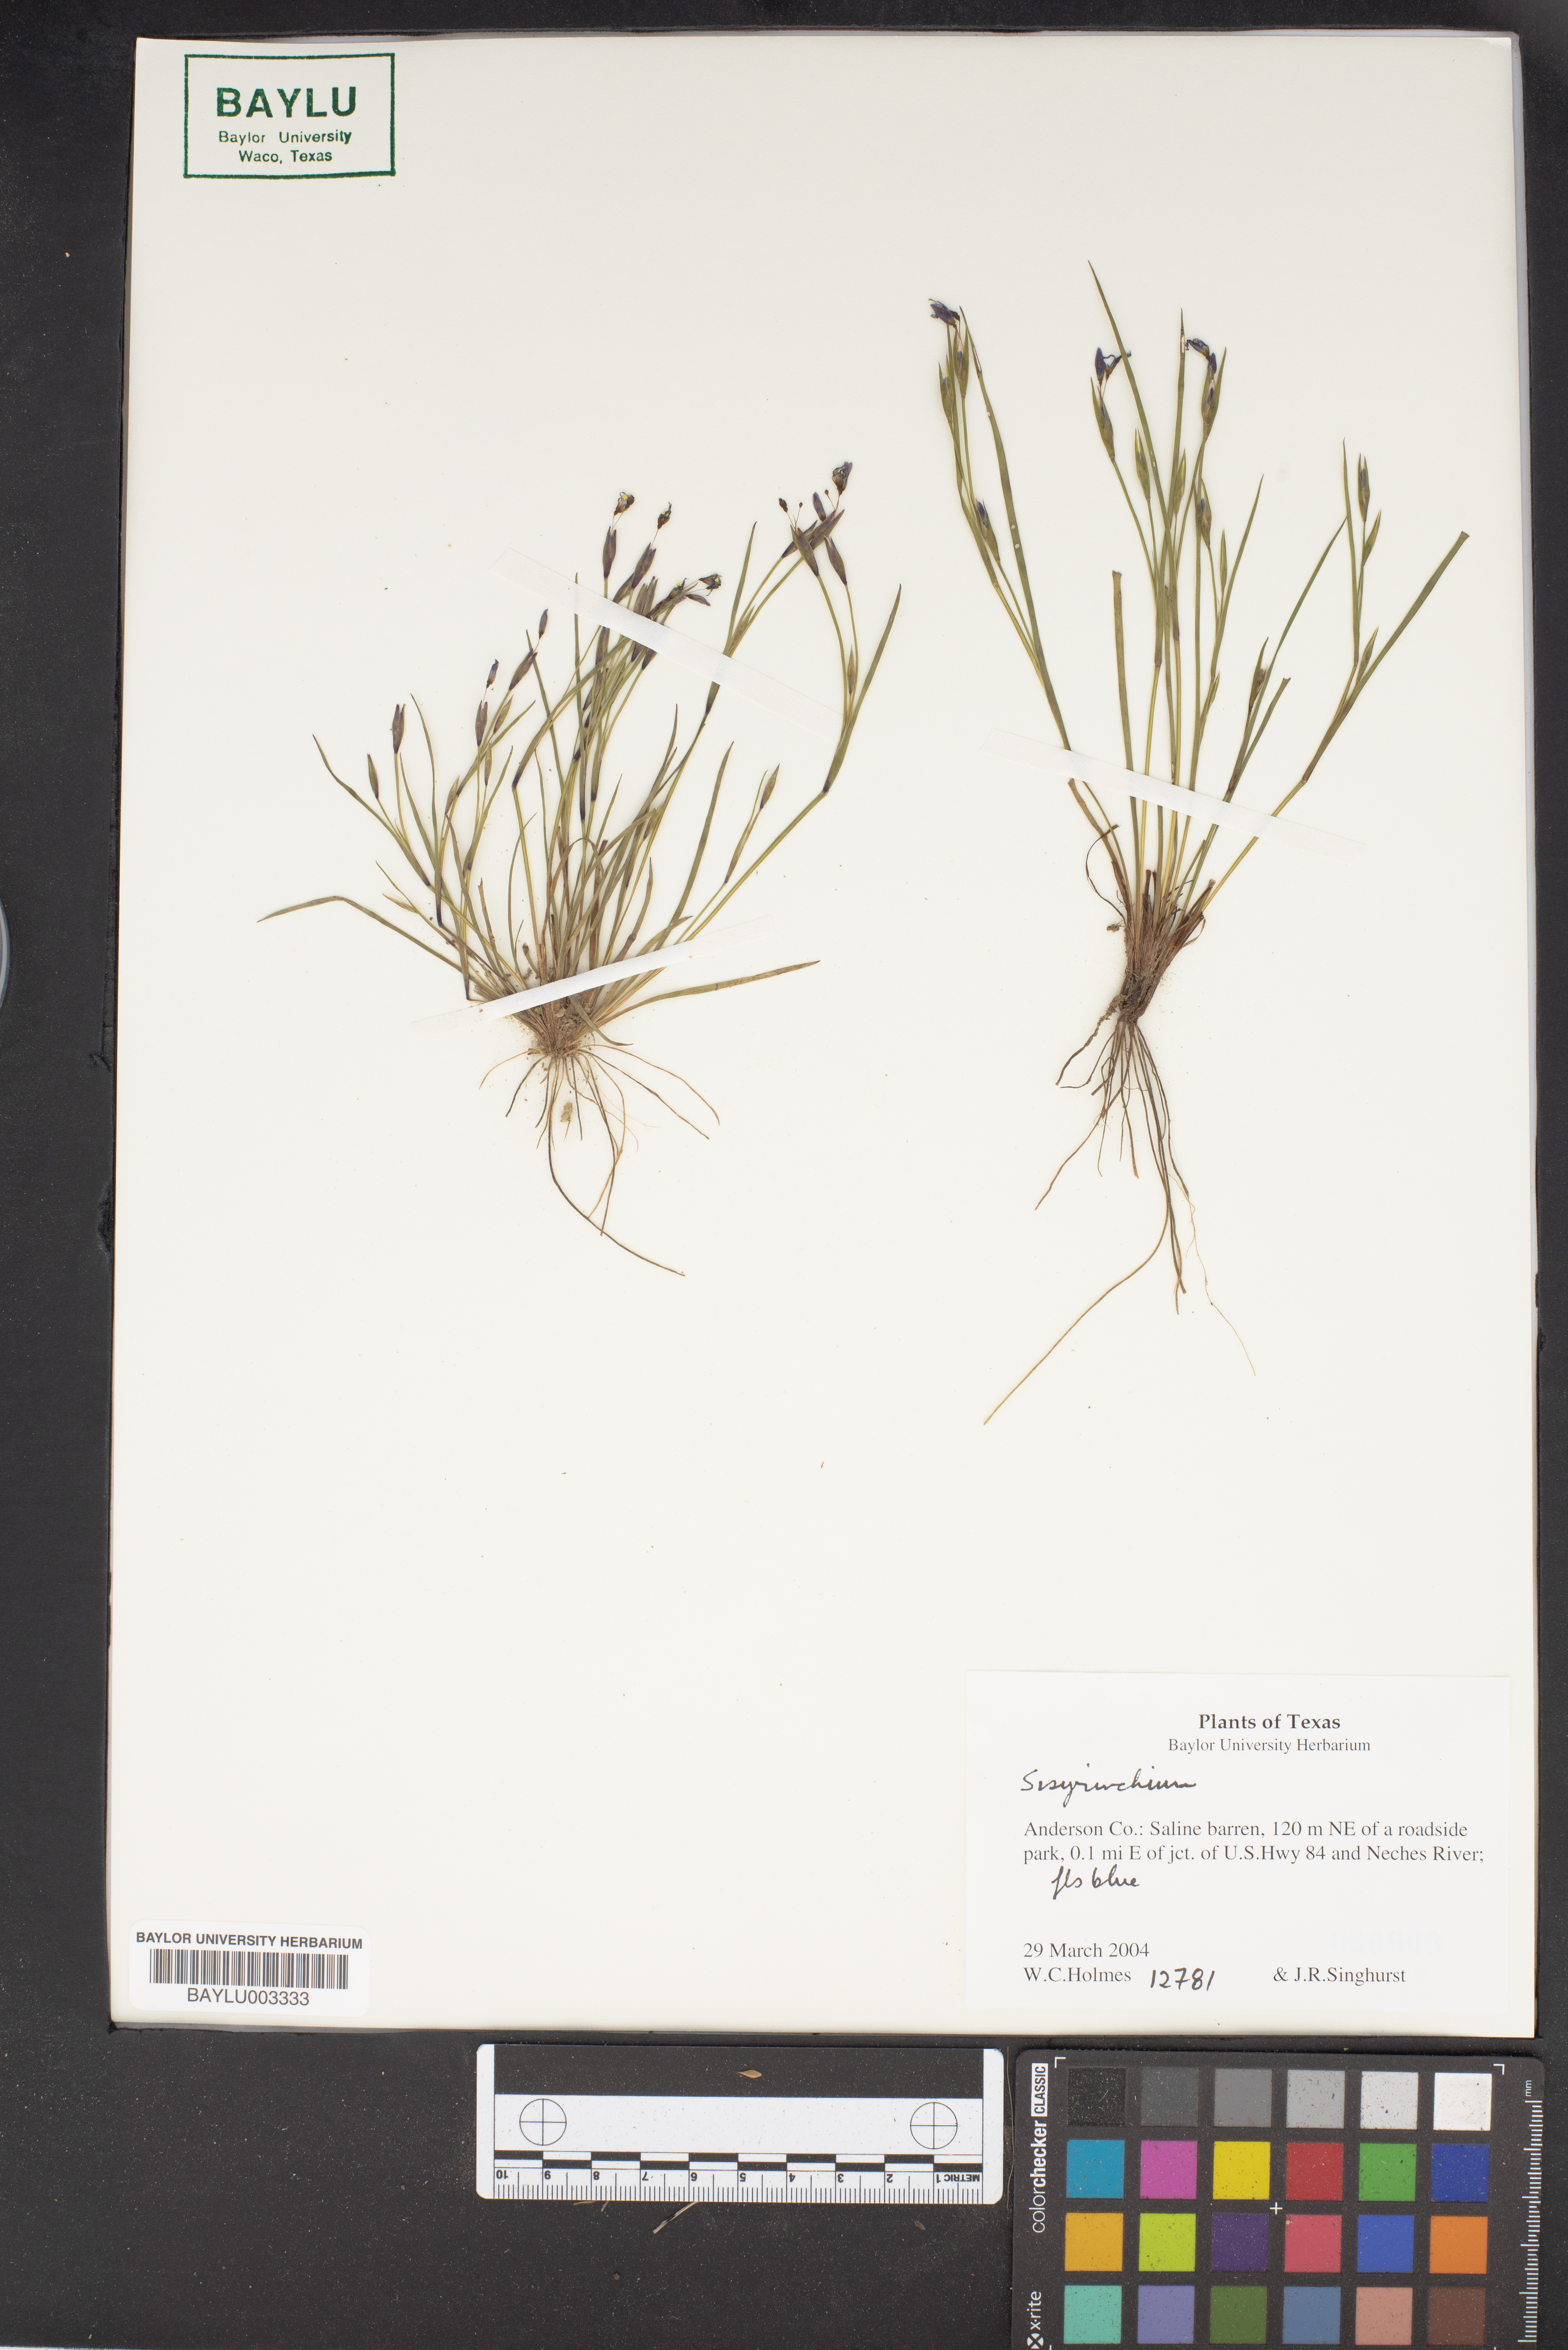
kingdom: Plantae
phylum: Tracheophyta
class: Liliopsida
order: Asparagales
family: Iridaceae
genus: Sisyrinchium
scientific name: Sisyrinchium
